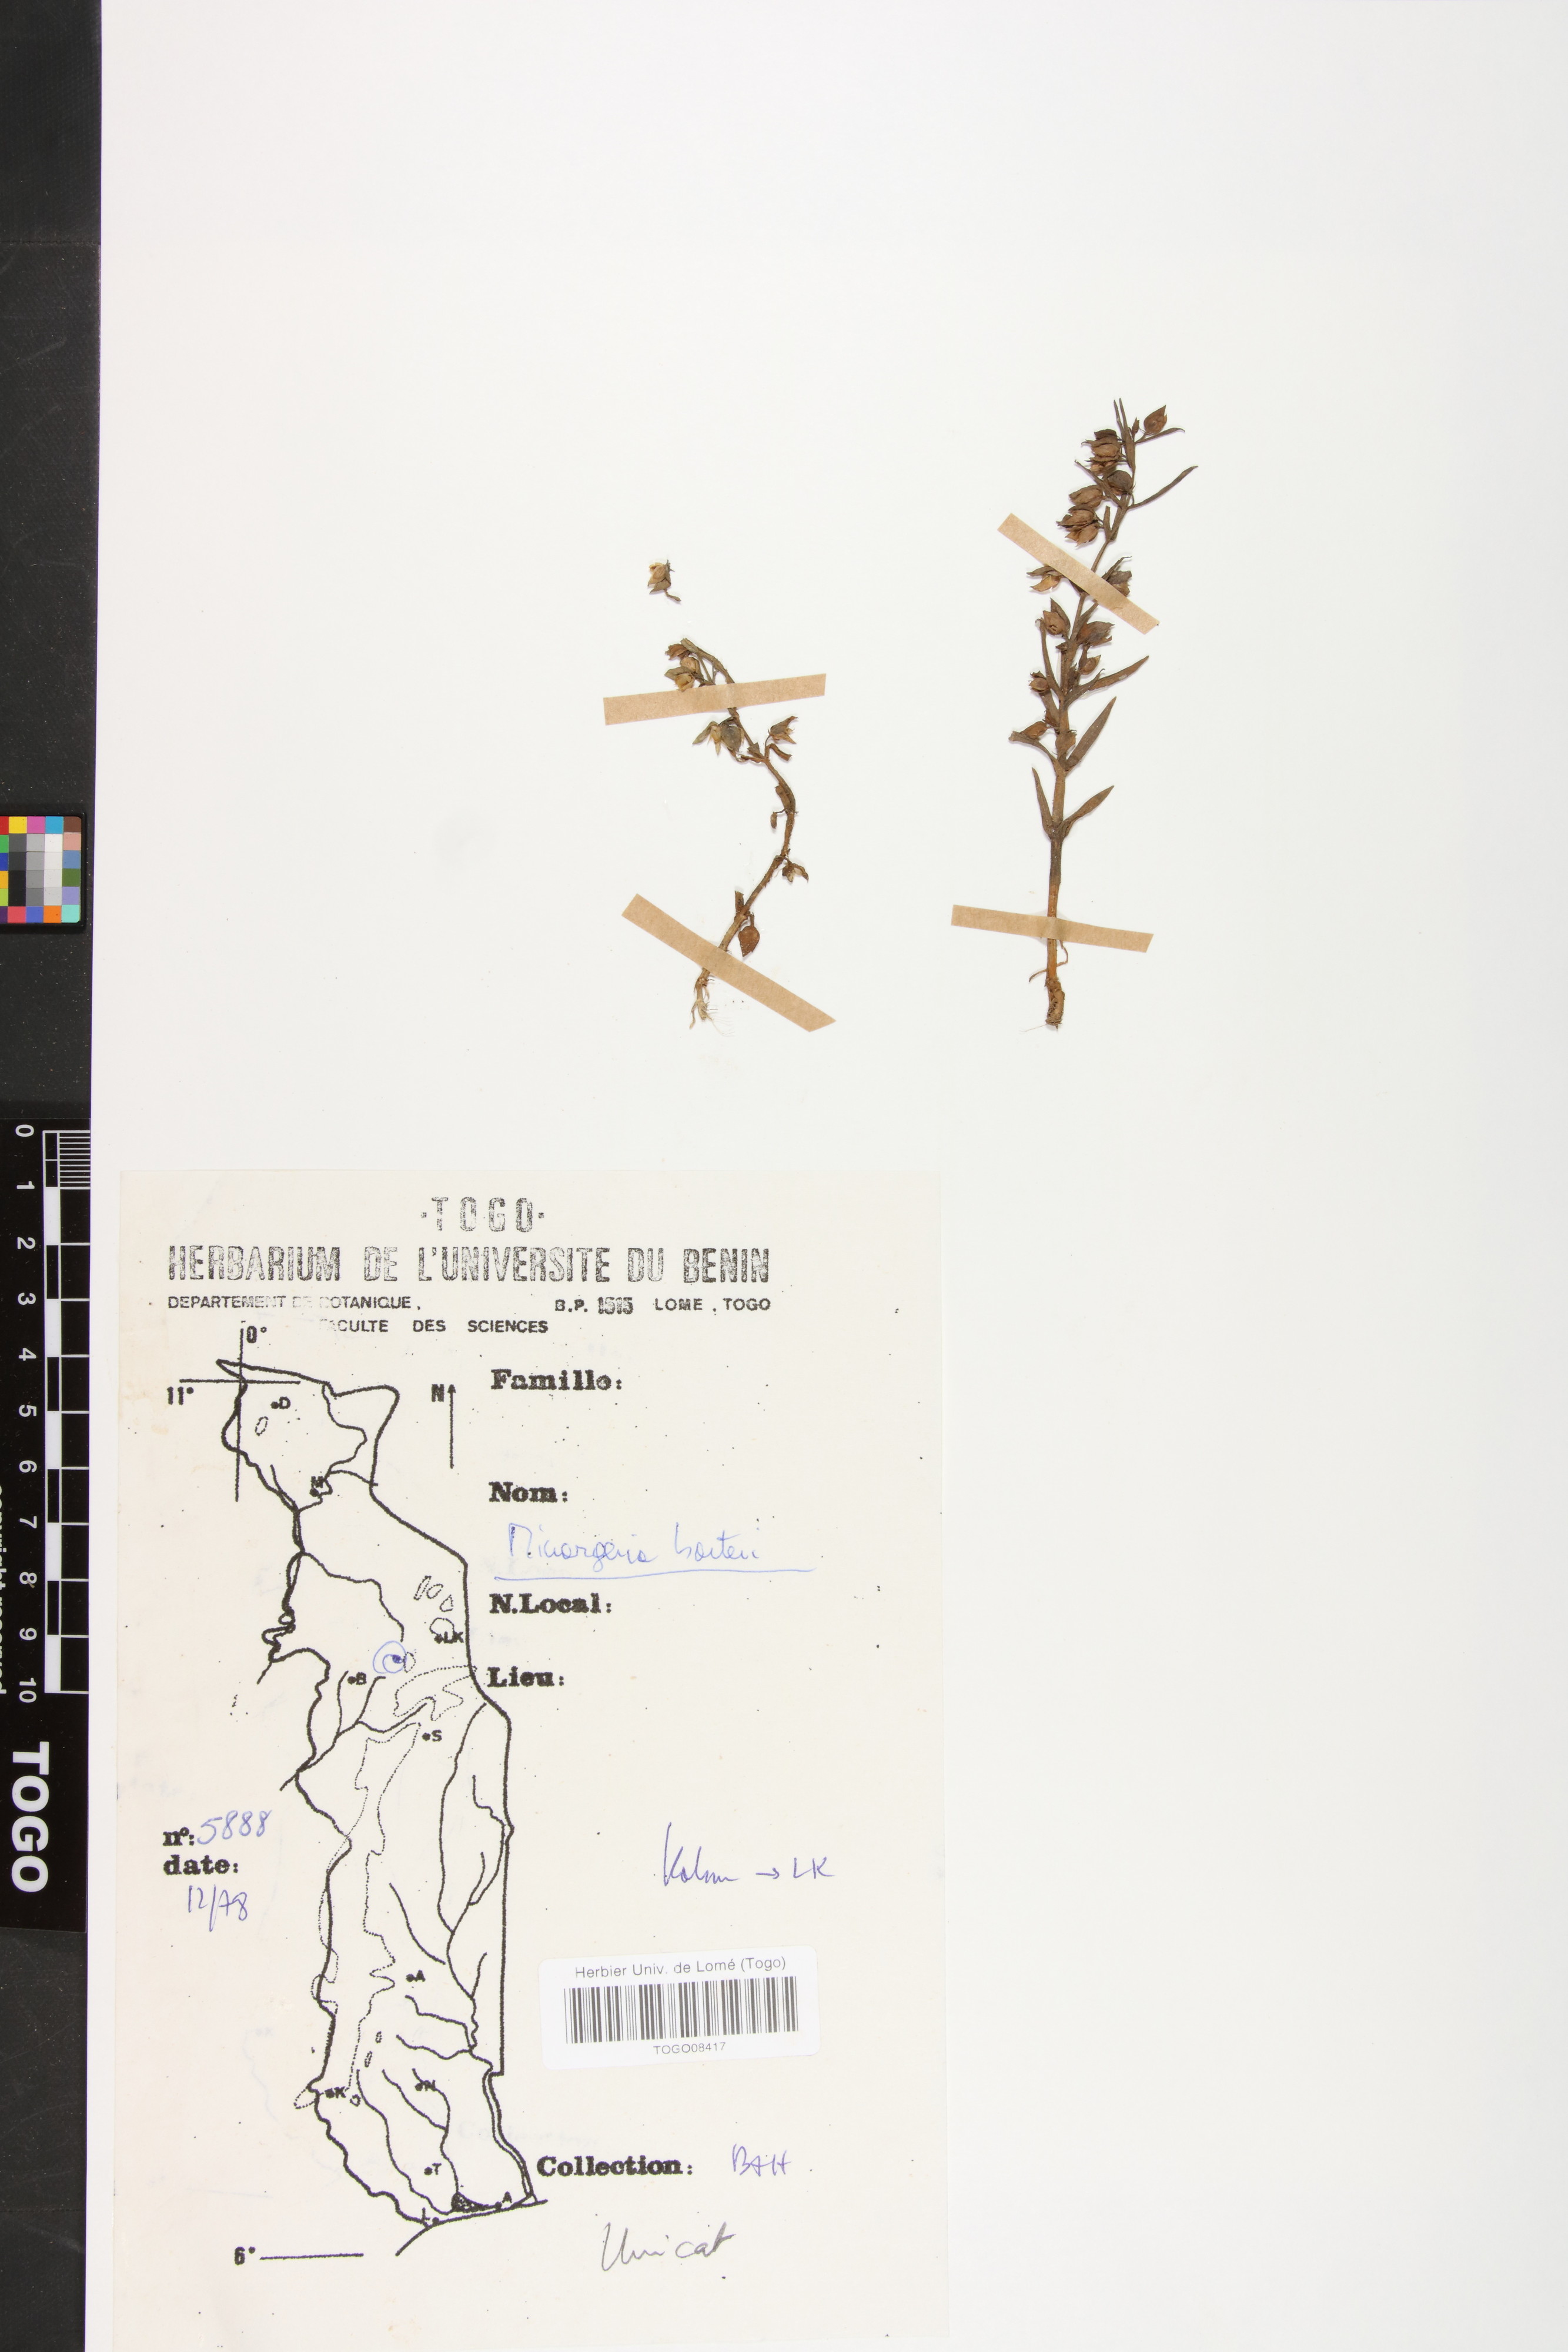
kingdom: Plantae
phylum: Tracheophyta
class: Magnoliopsida
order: Lamiales
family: Orobanchaceae
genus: Micrargeria
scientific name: Micrargeria filiformis
